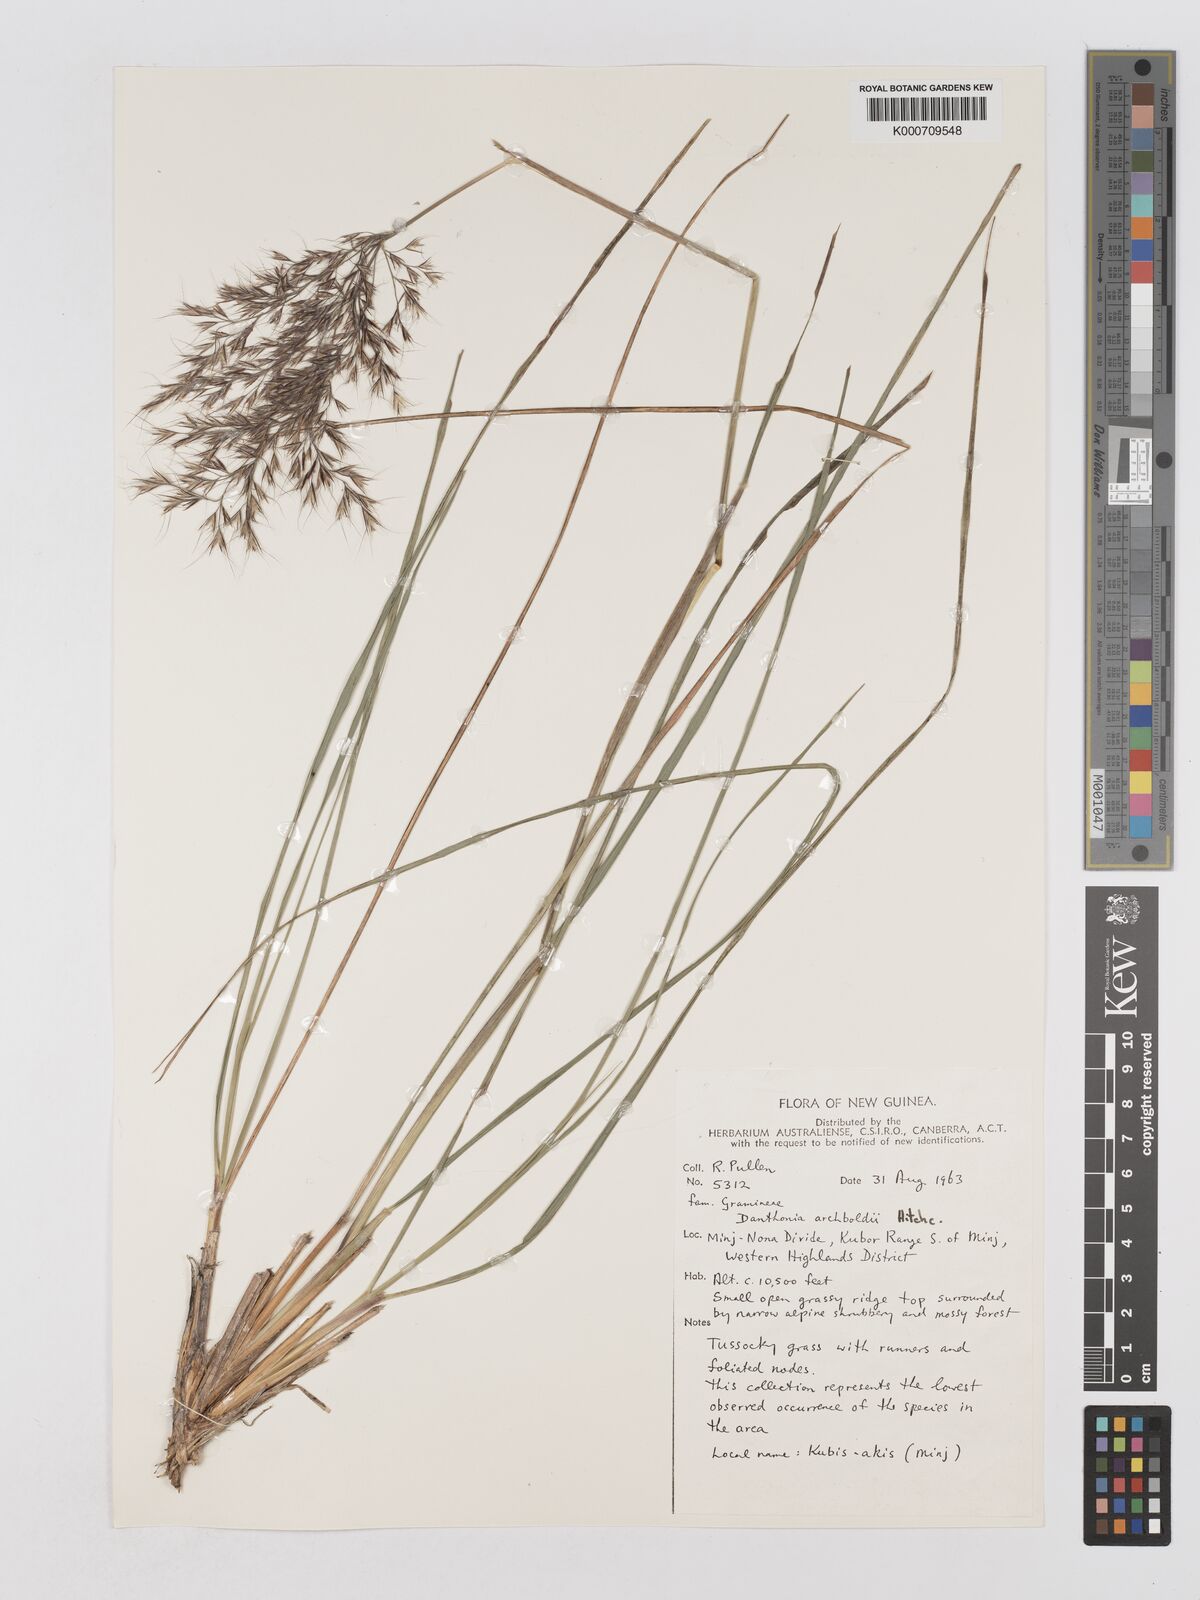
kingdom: Plantae
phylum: Tracheophyta
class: Liliopsida
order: Poales
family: Poaceae
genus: Chimaerochloa
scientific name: Chimaerochloa archboldii
